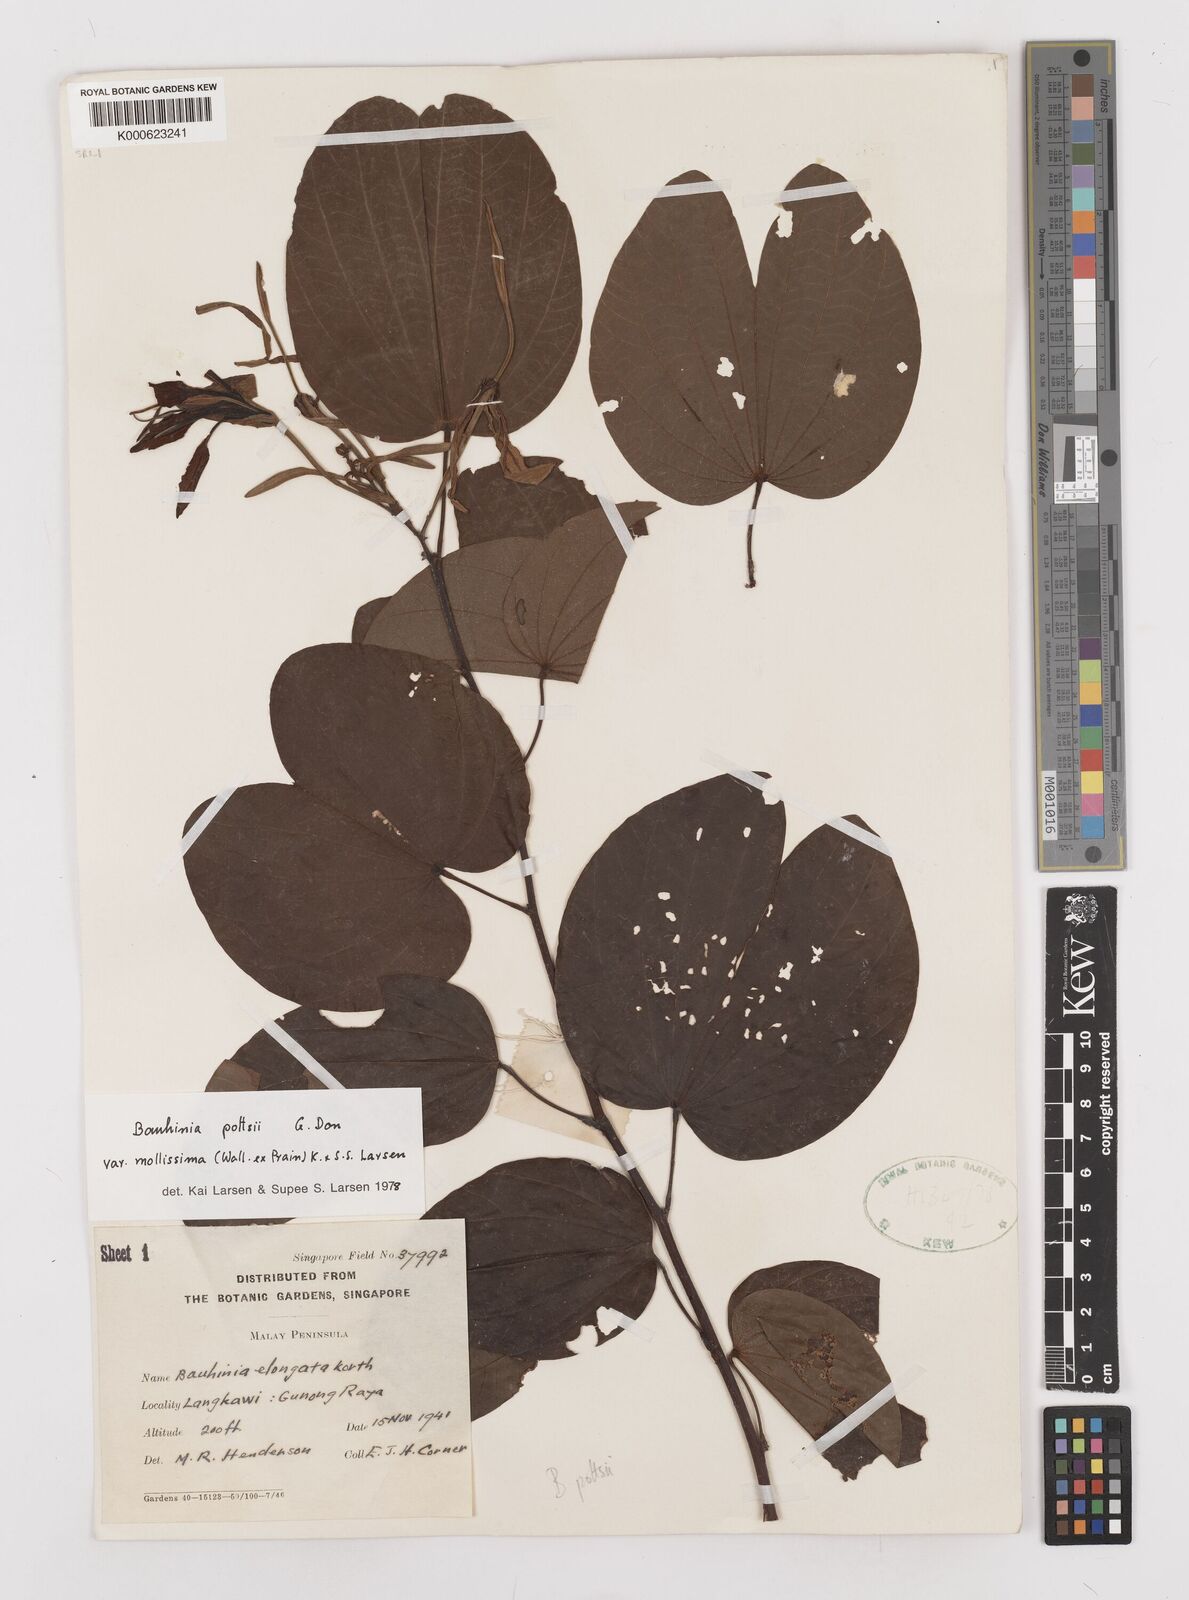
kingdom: Plantae
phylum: Tracheophyta
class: Magnoliopsida
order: Fabales
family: Fabaceae
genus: Bauhinia
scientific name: Bauhinia pottsii
